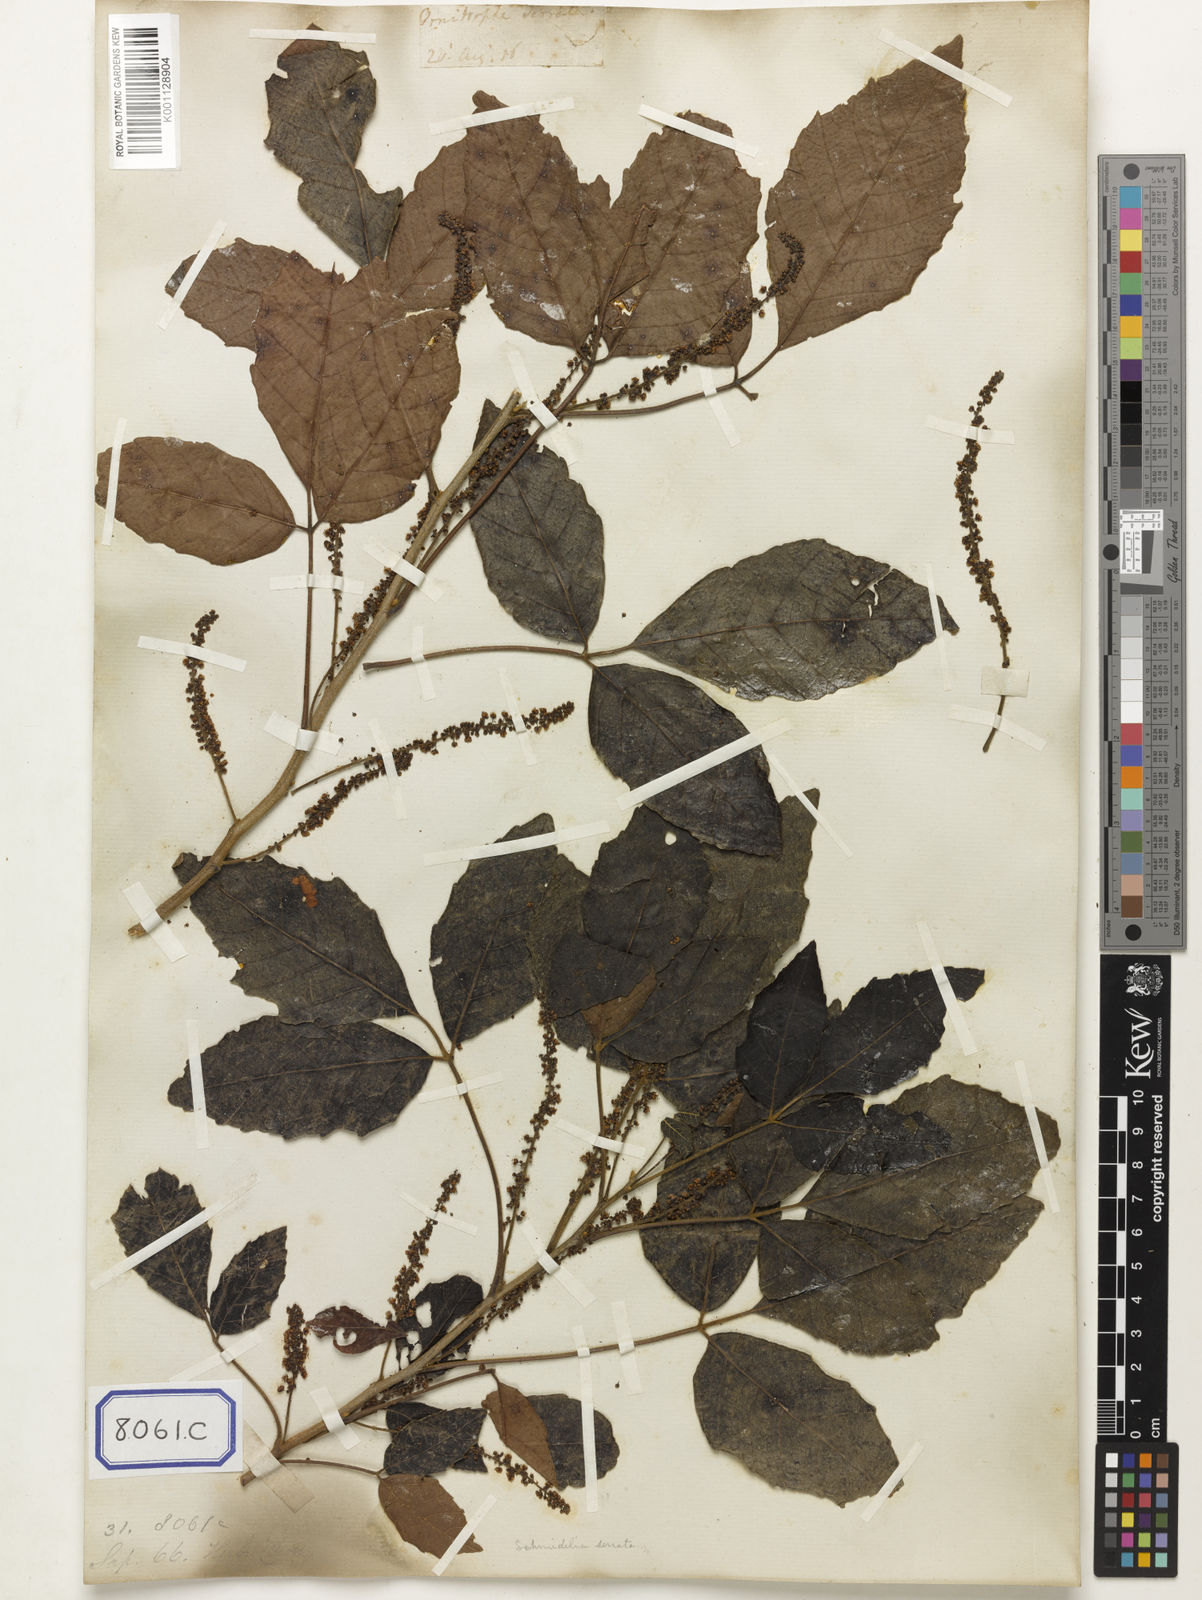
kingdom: Plantae
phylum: Tracheophyta
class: Magnoliopsida
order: Sapindales
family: Sapindaceae
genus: Allophylus
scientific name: Allophylus serratus
